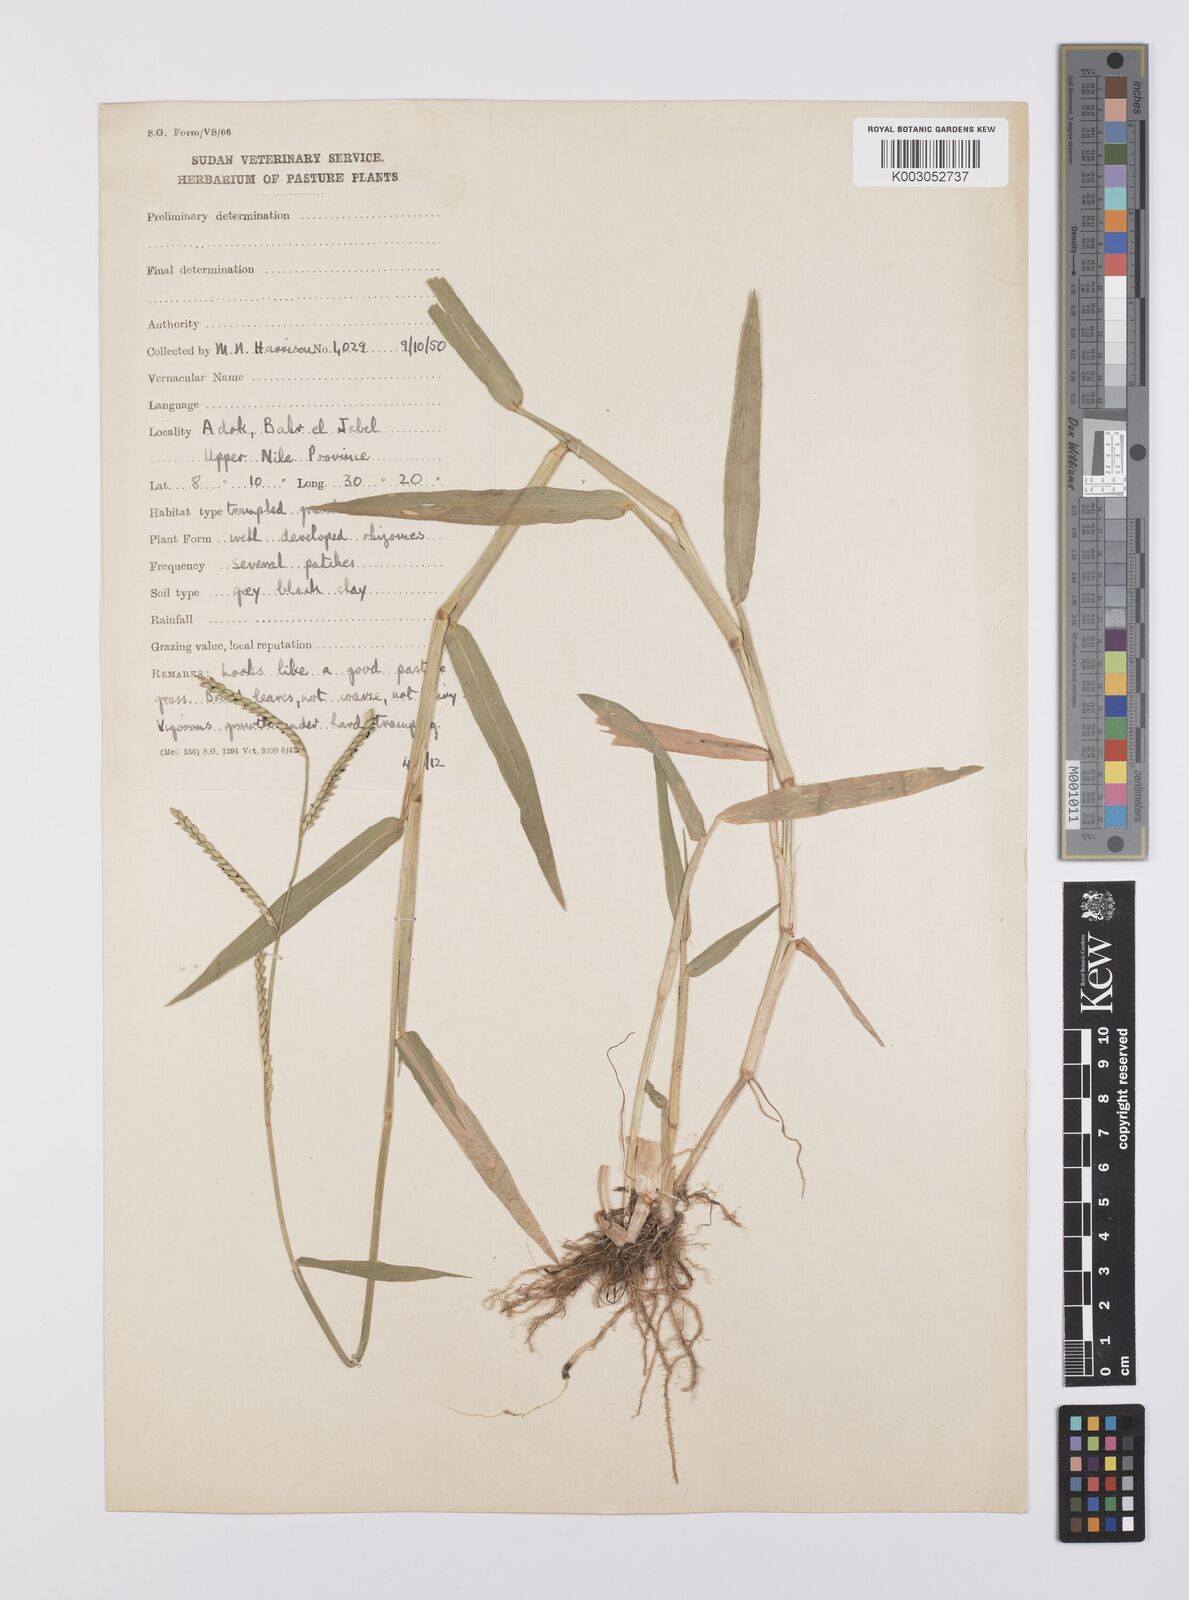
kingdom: Plantae
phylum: Tracheophyta
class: Liliopsida
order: Poales
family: Poaceae
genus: Urochloa
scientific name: Urochloa arrecta
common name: African signalgrass
